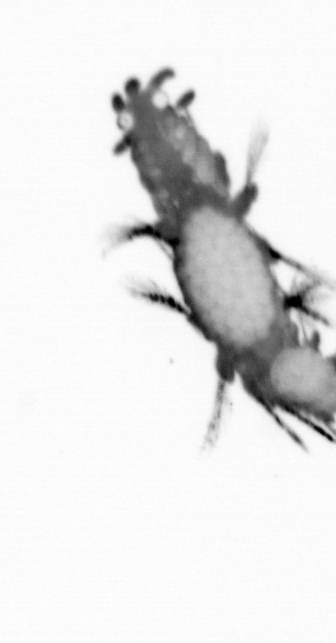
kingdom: Animalia
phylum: Annelida
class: Polychaeta
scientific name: Polychaeta
